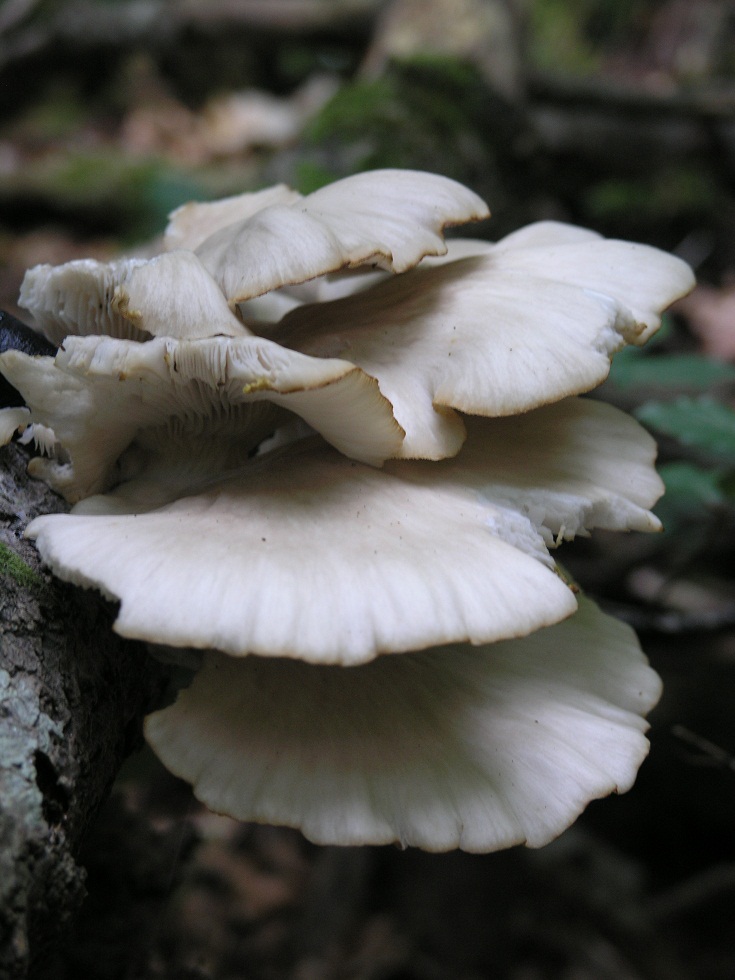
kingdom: Fungi
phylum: Basidiomycota
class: Agaricomycetes
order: Agaricales
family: Pleurotaceae
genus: Pleurotus
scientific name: Pleurotus pulmonarius
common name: sommer-østershat
